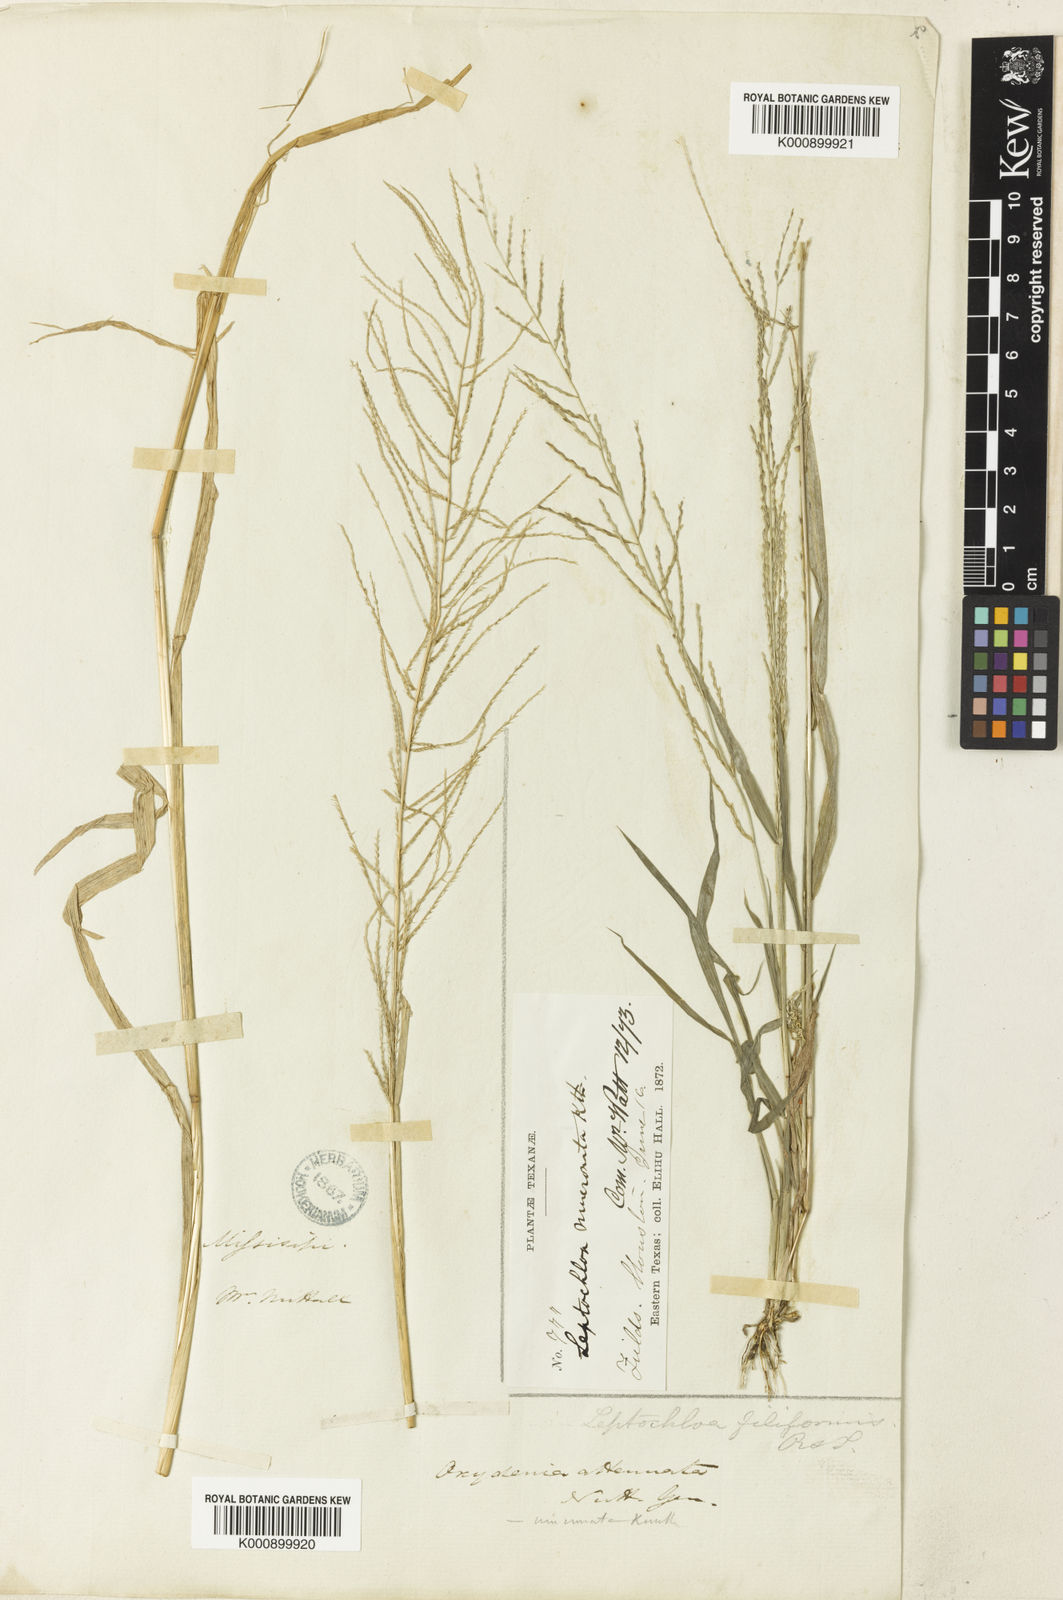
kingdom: Plantae
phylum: Tracheophyta
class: Liliopsida
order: Poales
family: Poaceae
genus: Leptochloa
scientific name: Leptochloa mucronata
